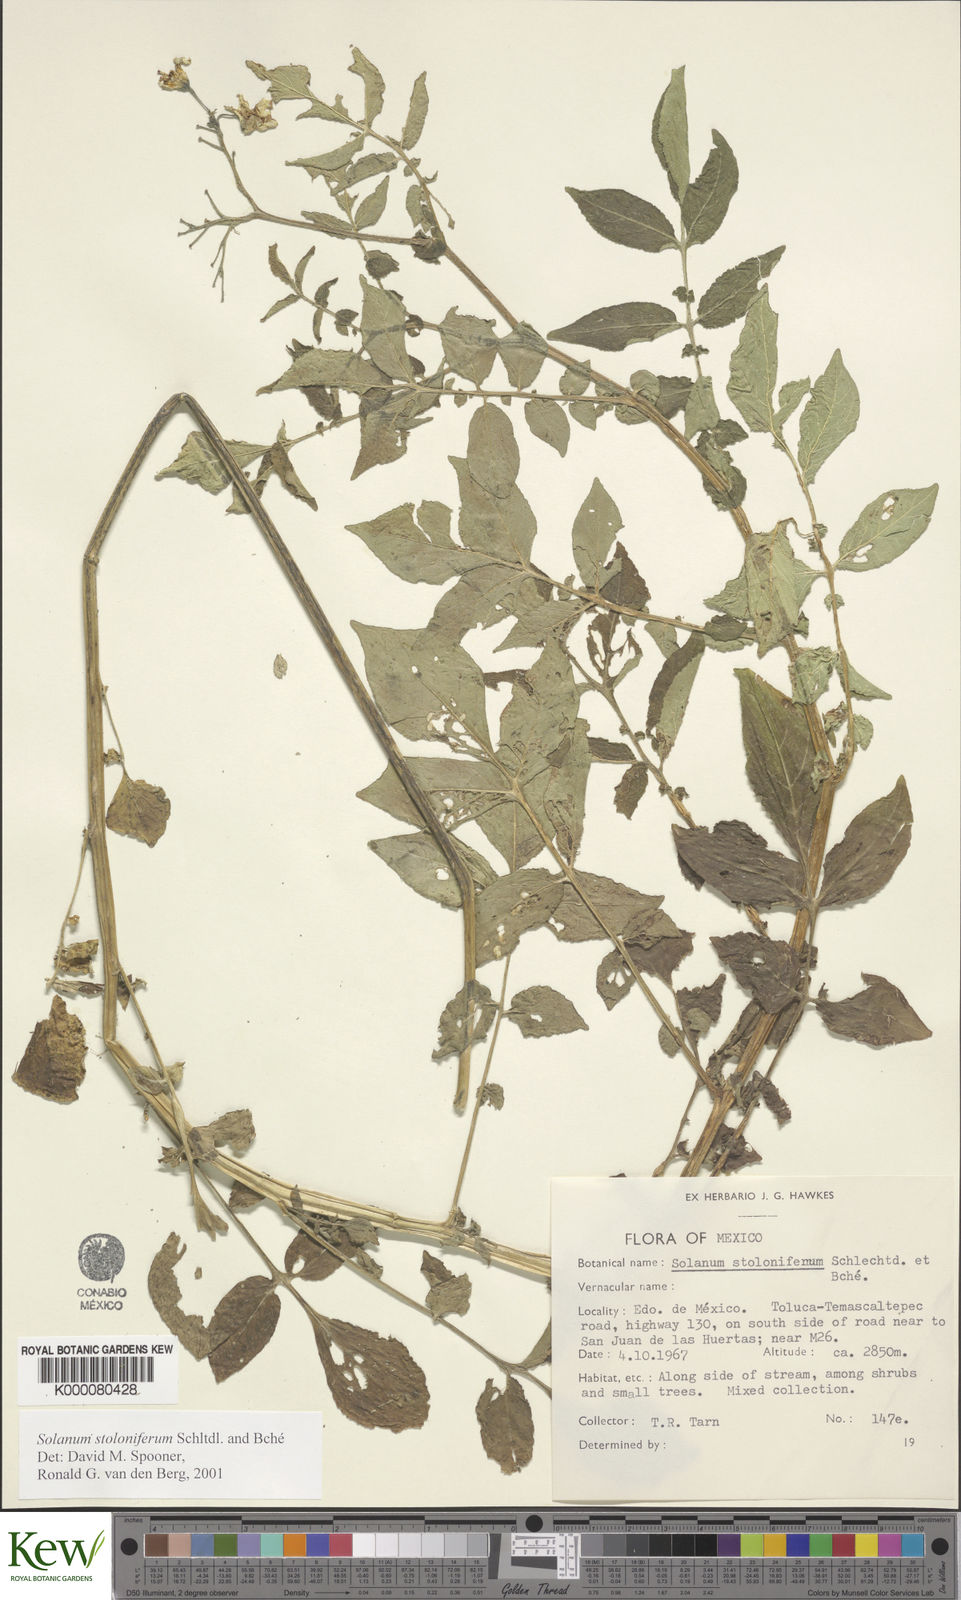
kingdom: Plantae
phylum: Tracheophyta
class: Magnoliopsida
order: Solanales
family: Solanaceae
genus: Solanum
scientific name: Solanum stoloniferum
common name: Fendler's nighshade
